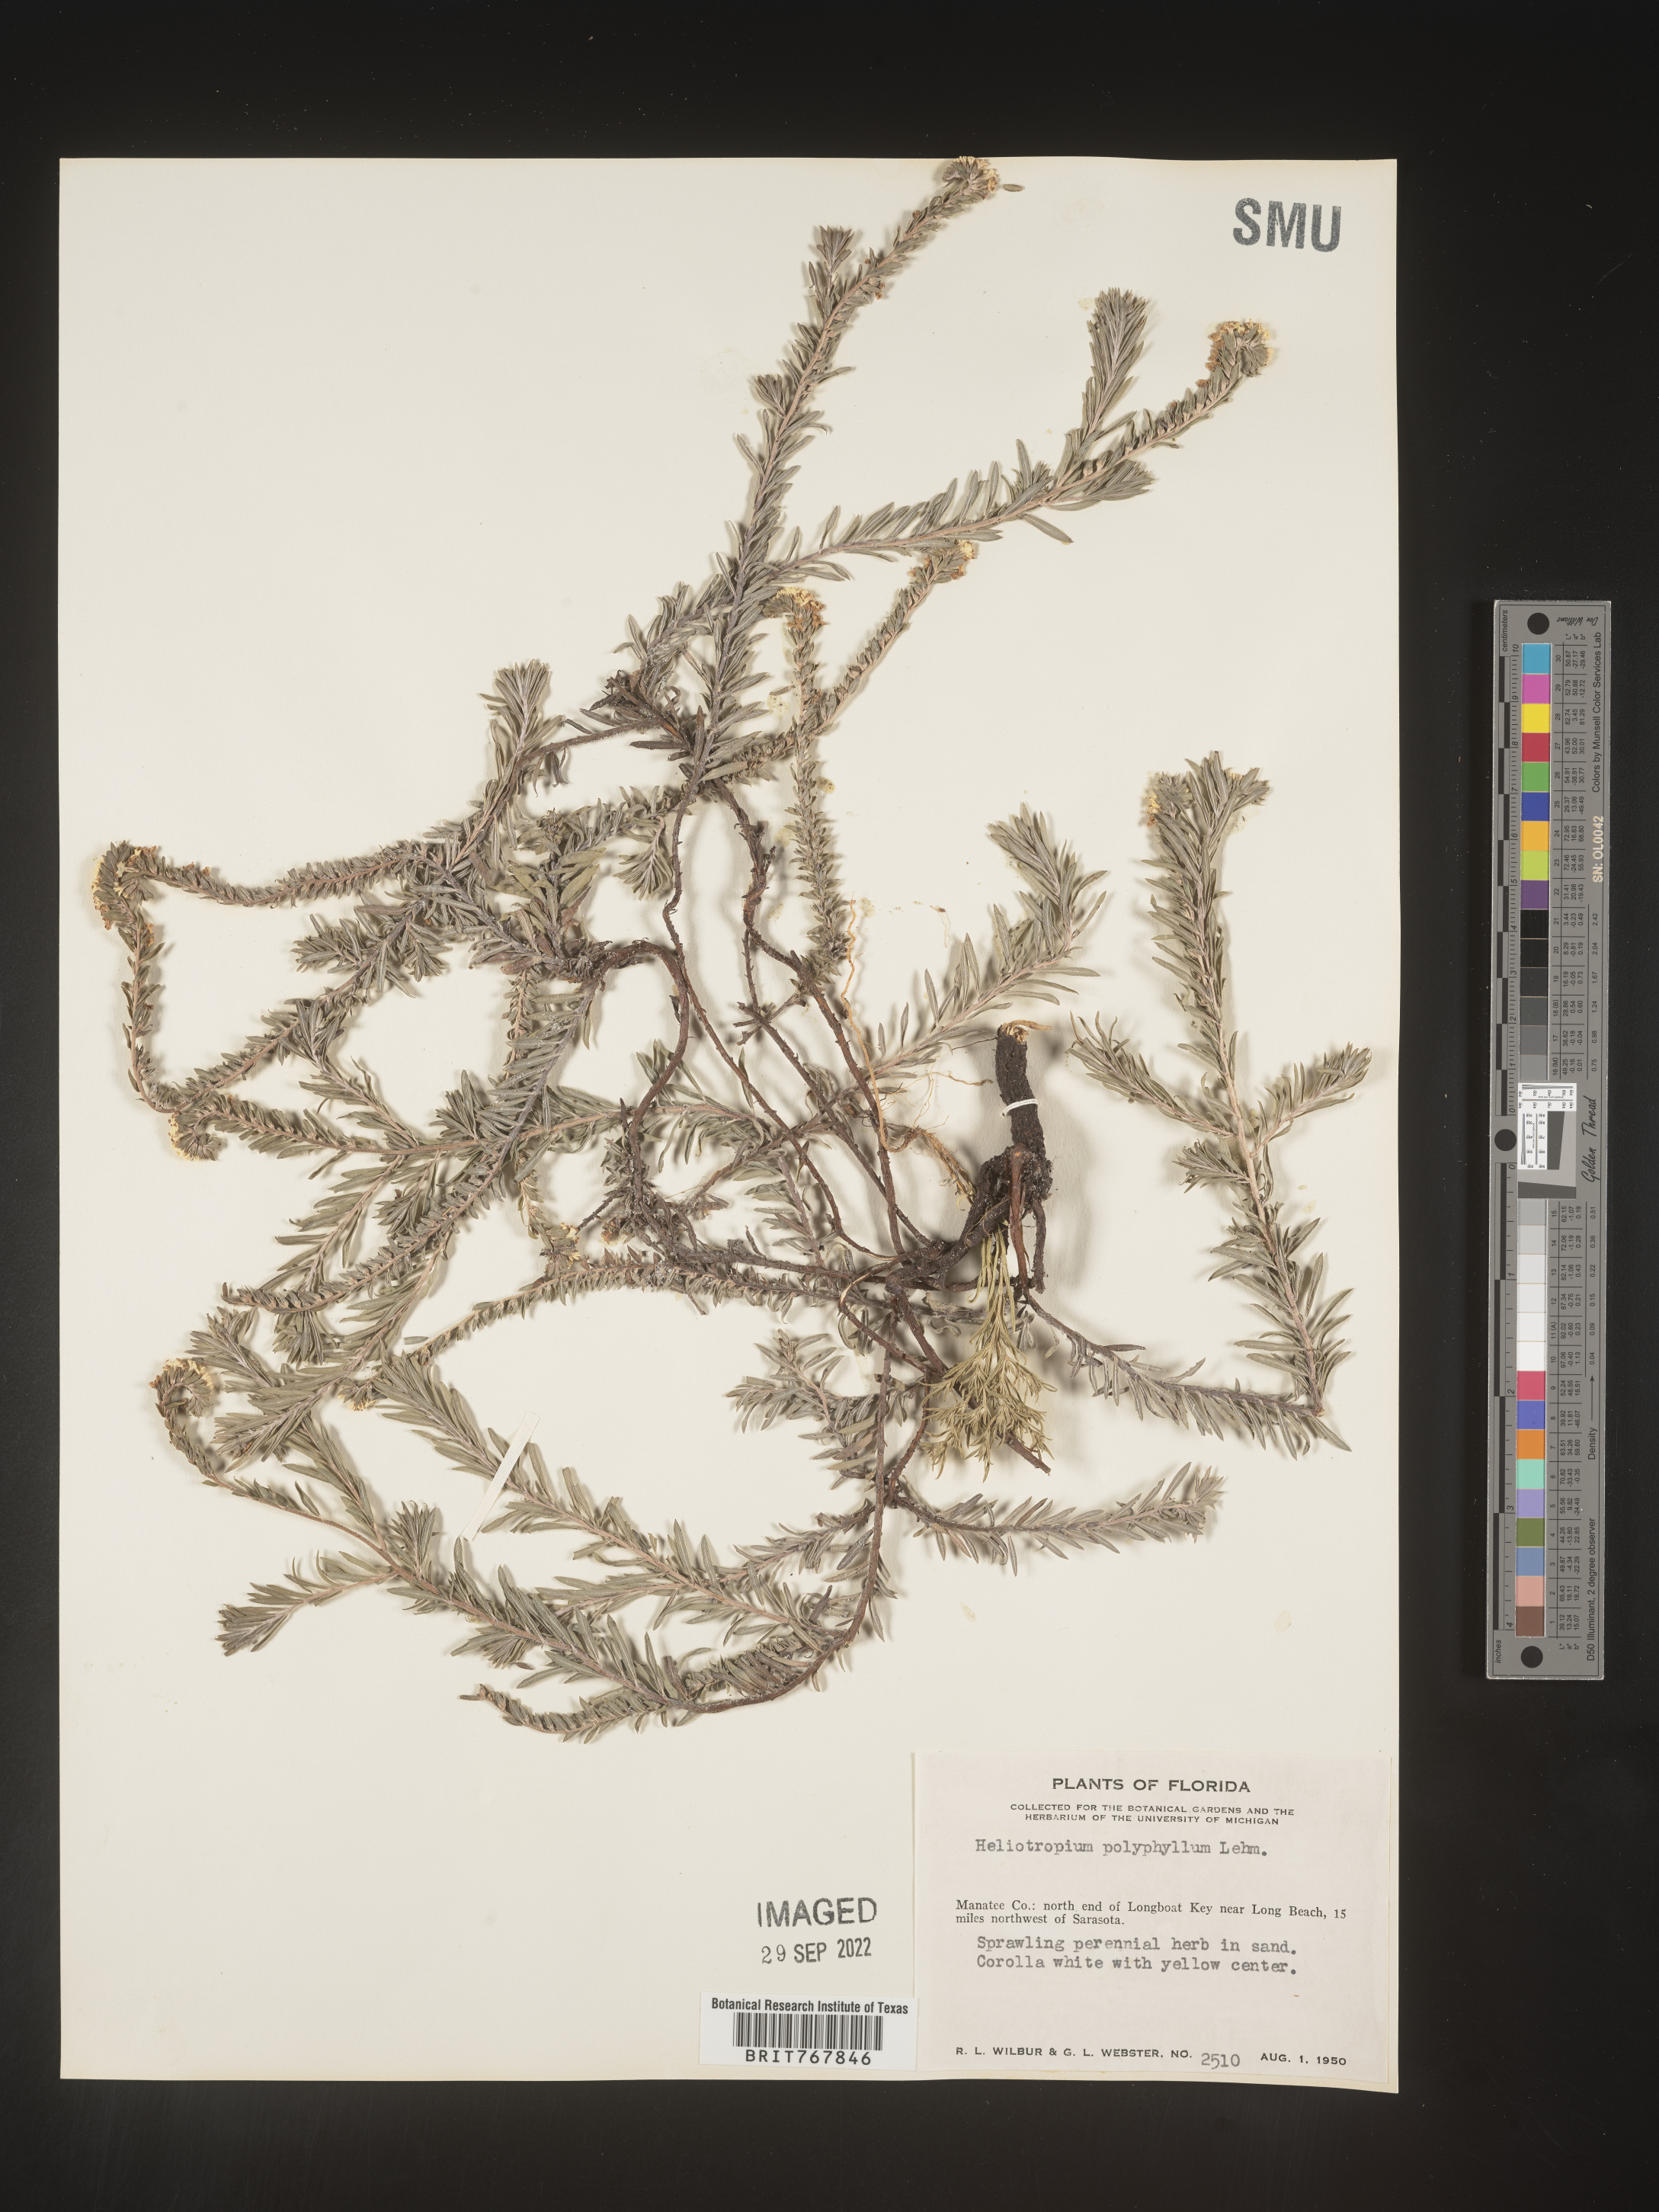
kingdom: Plantae
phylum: Tracheophyta
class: Magnoliopsida
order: Boraginales
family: Heliotropiaceae
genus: Heliotropium
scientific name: Heliotropium
